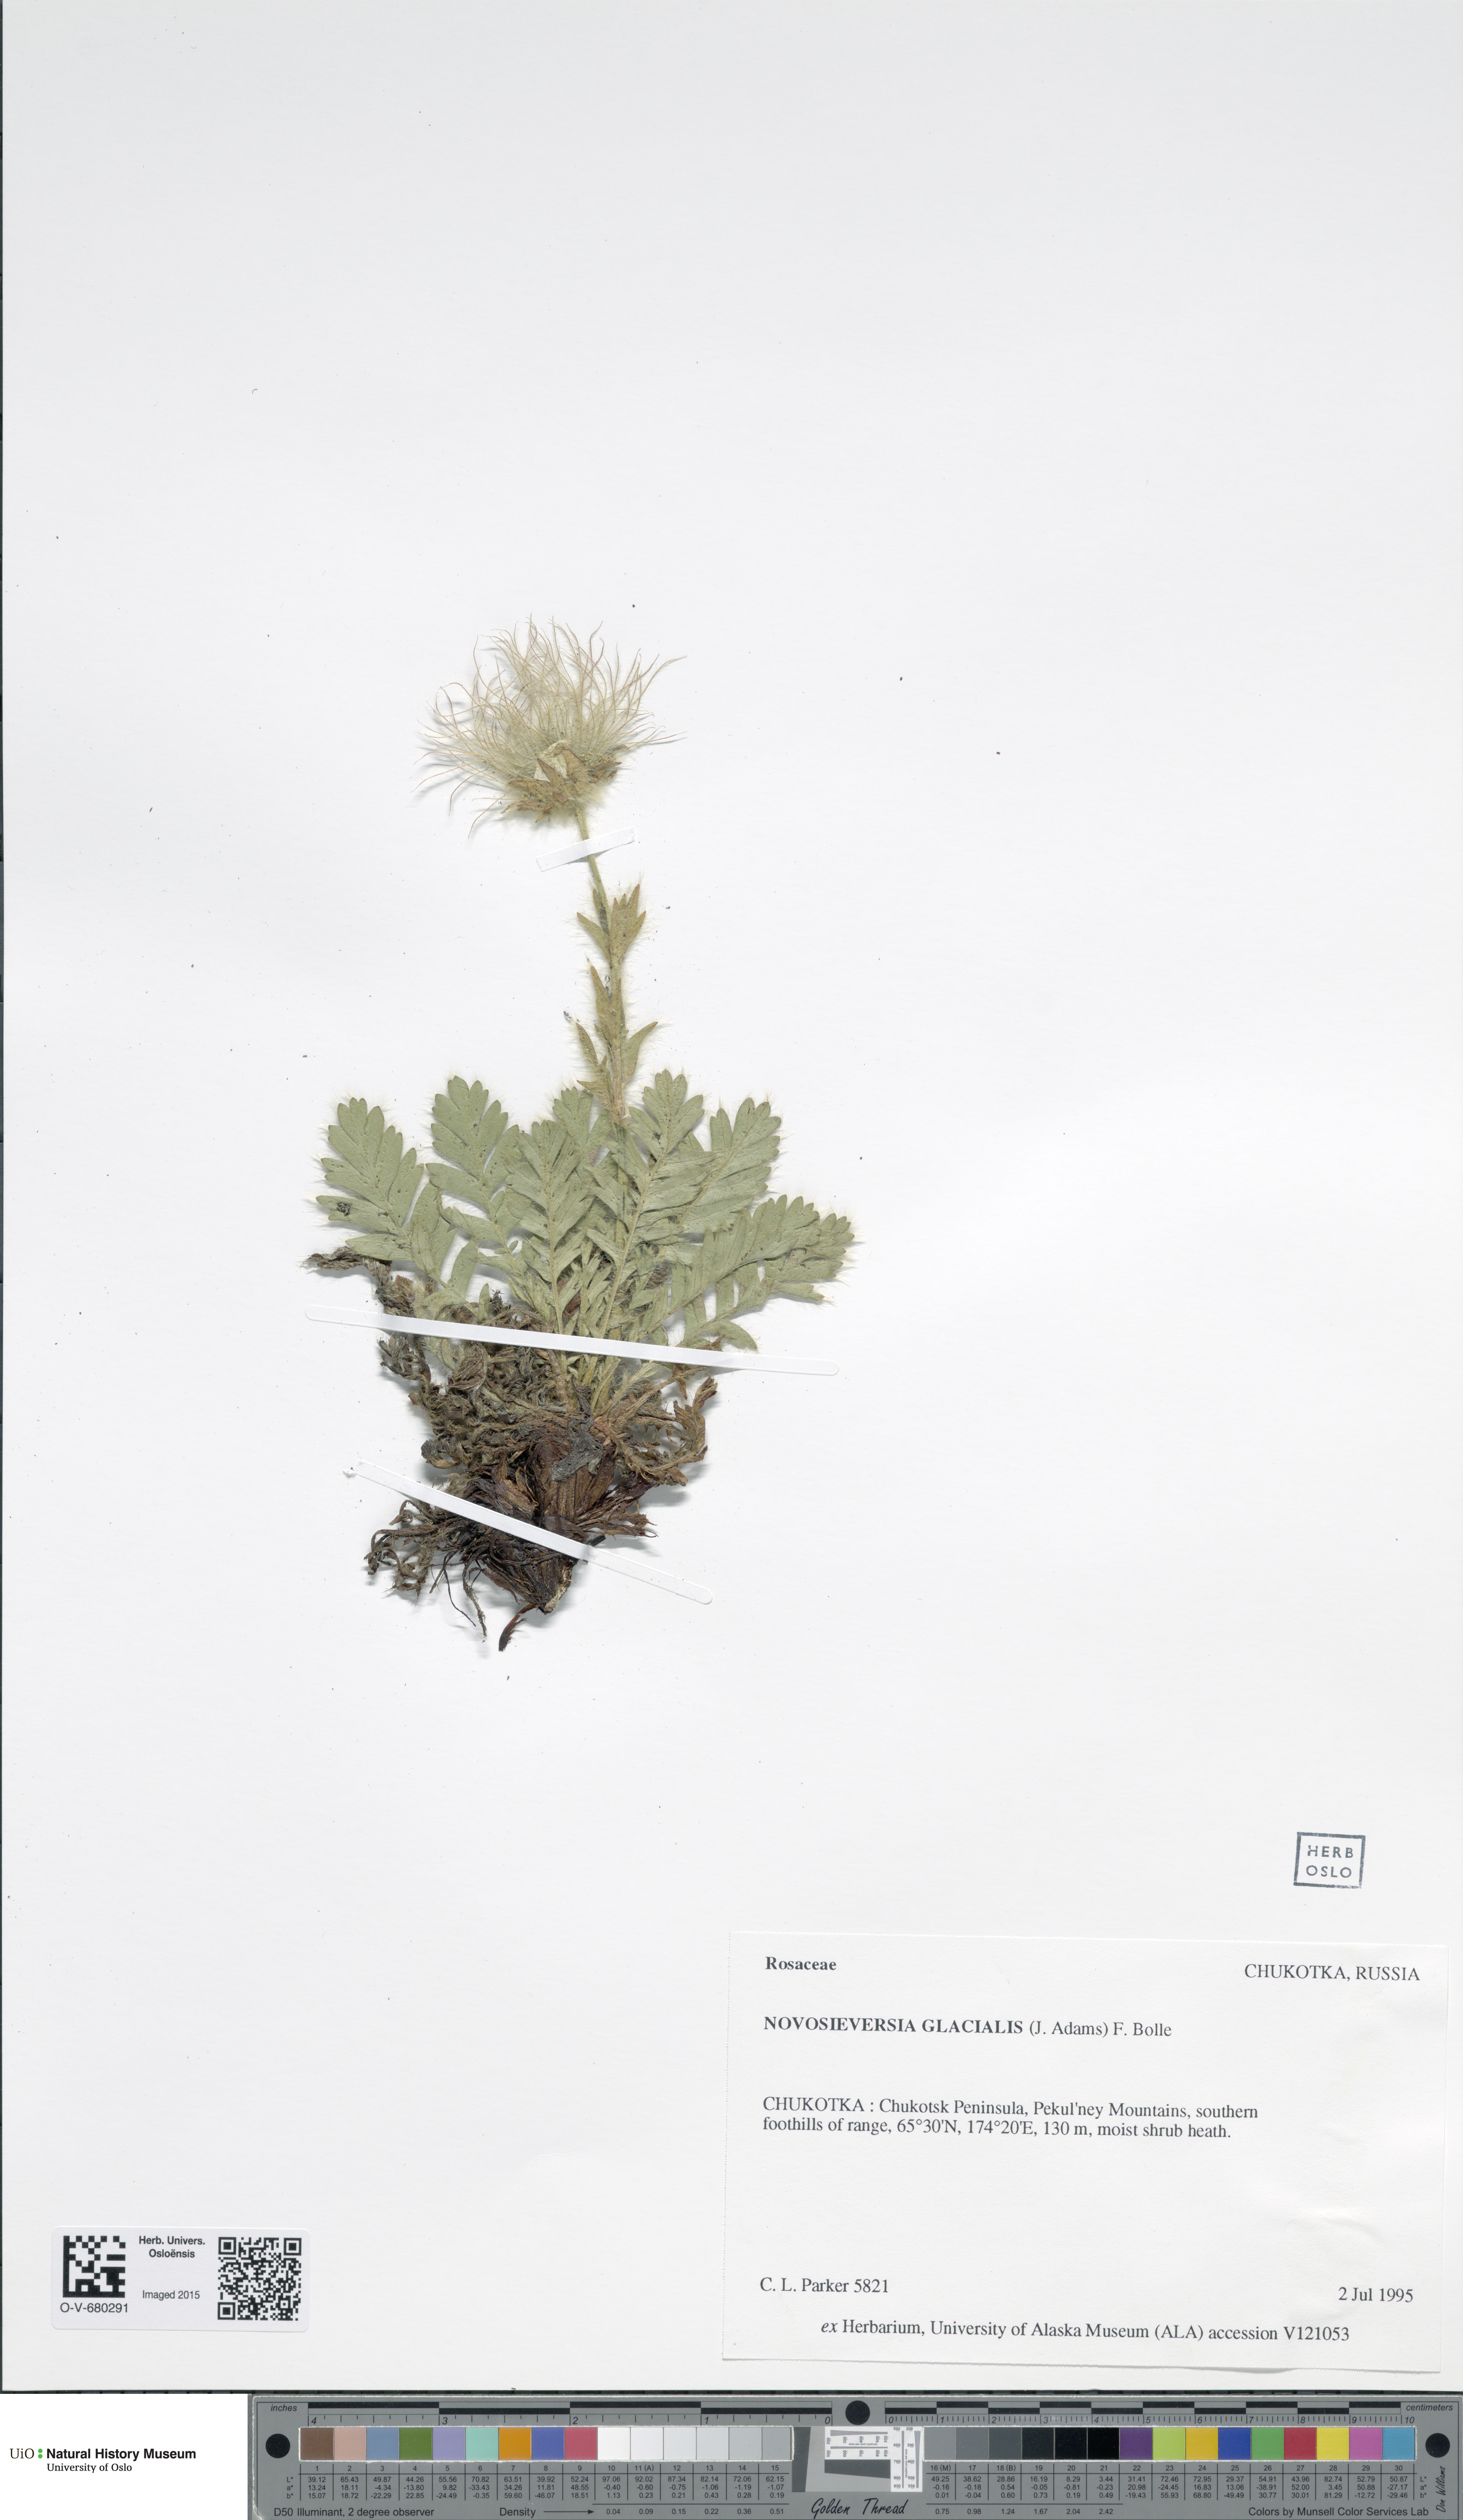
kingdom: Plantae
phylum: Tracheophyta
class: Magnoliopsida
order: Rosales
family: Rosaceae
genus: Geum
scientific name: Geum glaciale
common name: Glacier avens
